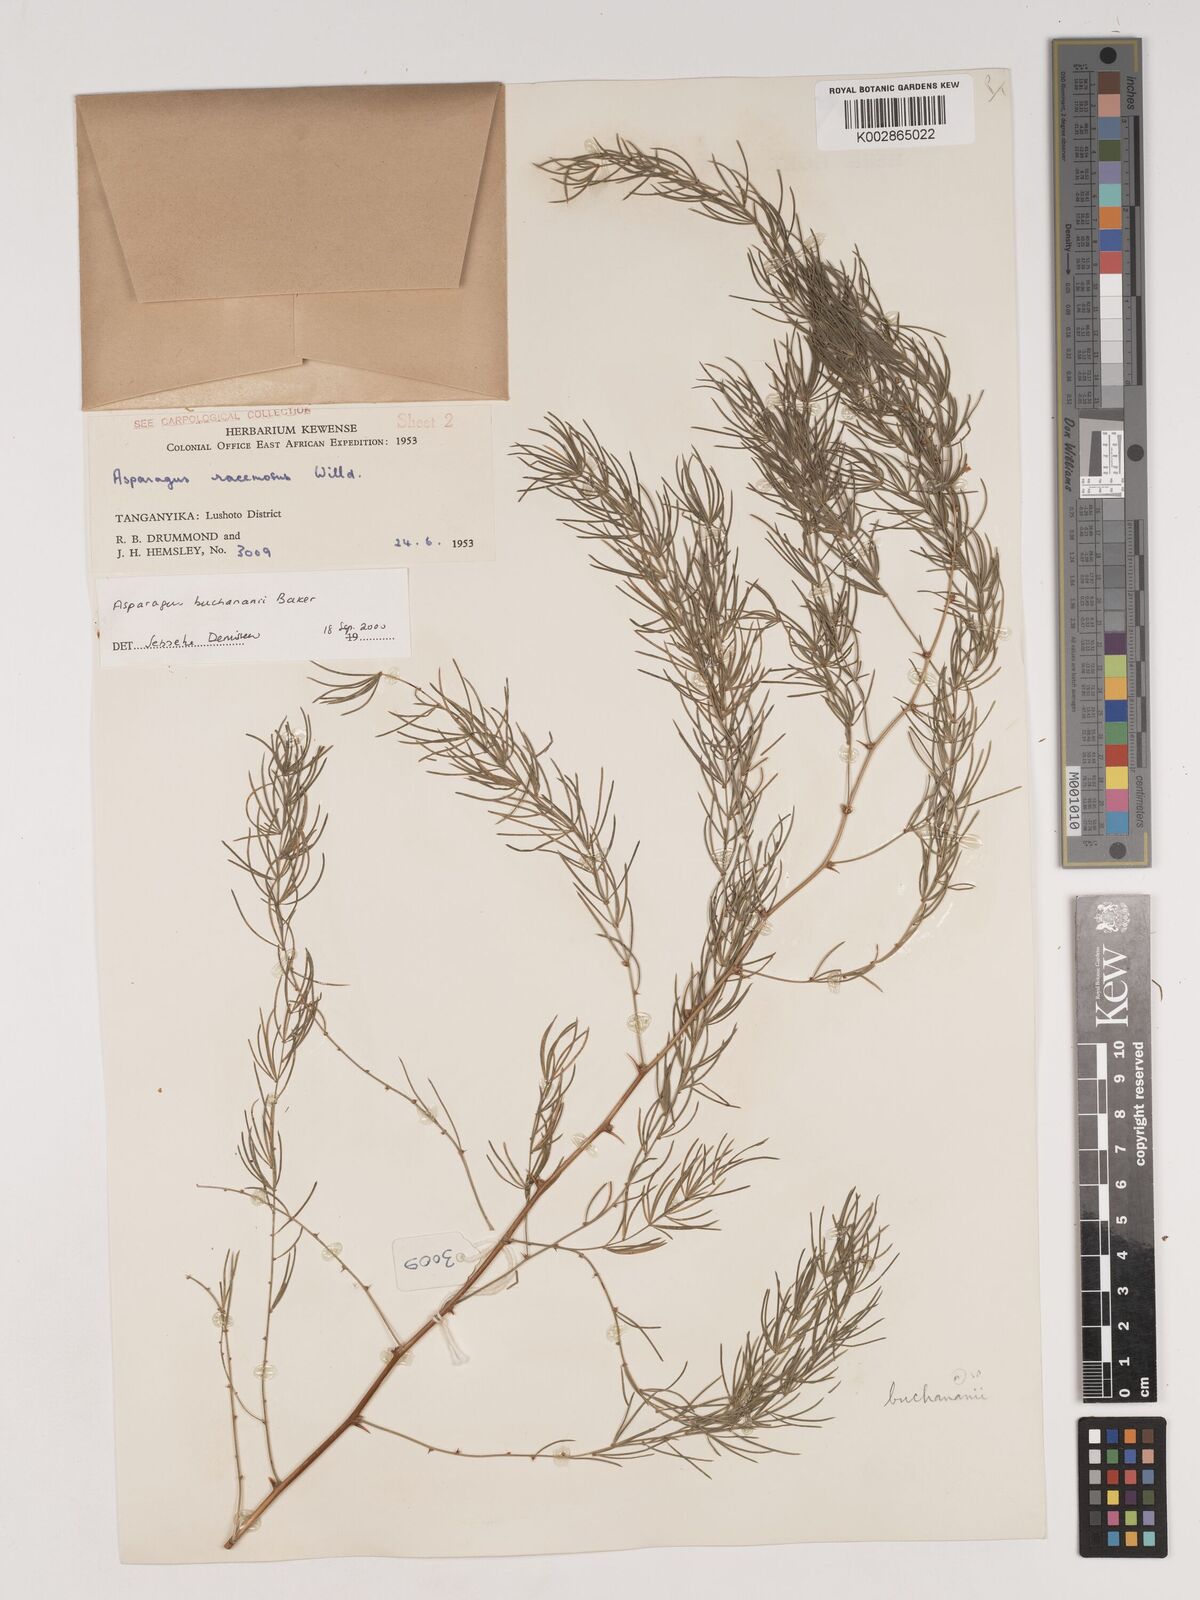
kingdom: Plantae
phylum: Tracheophyta
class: Liliopsida
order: Asparagales
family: Asparagaceae
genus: Asparagus
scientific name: Asparagus buchananii
